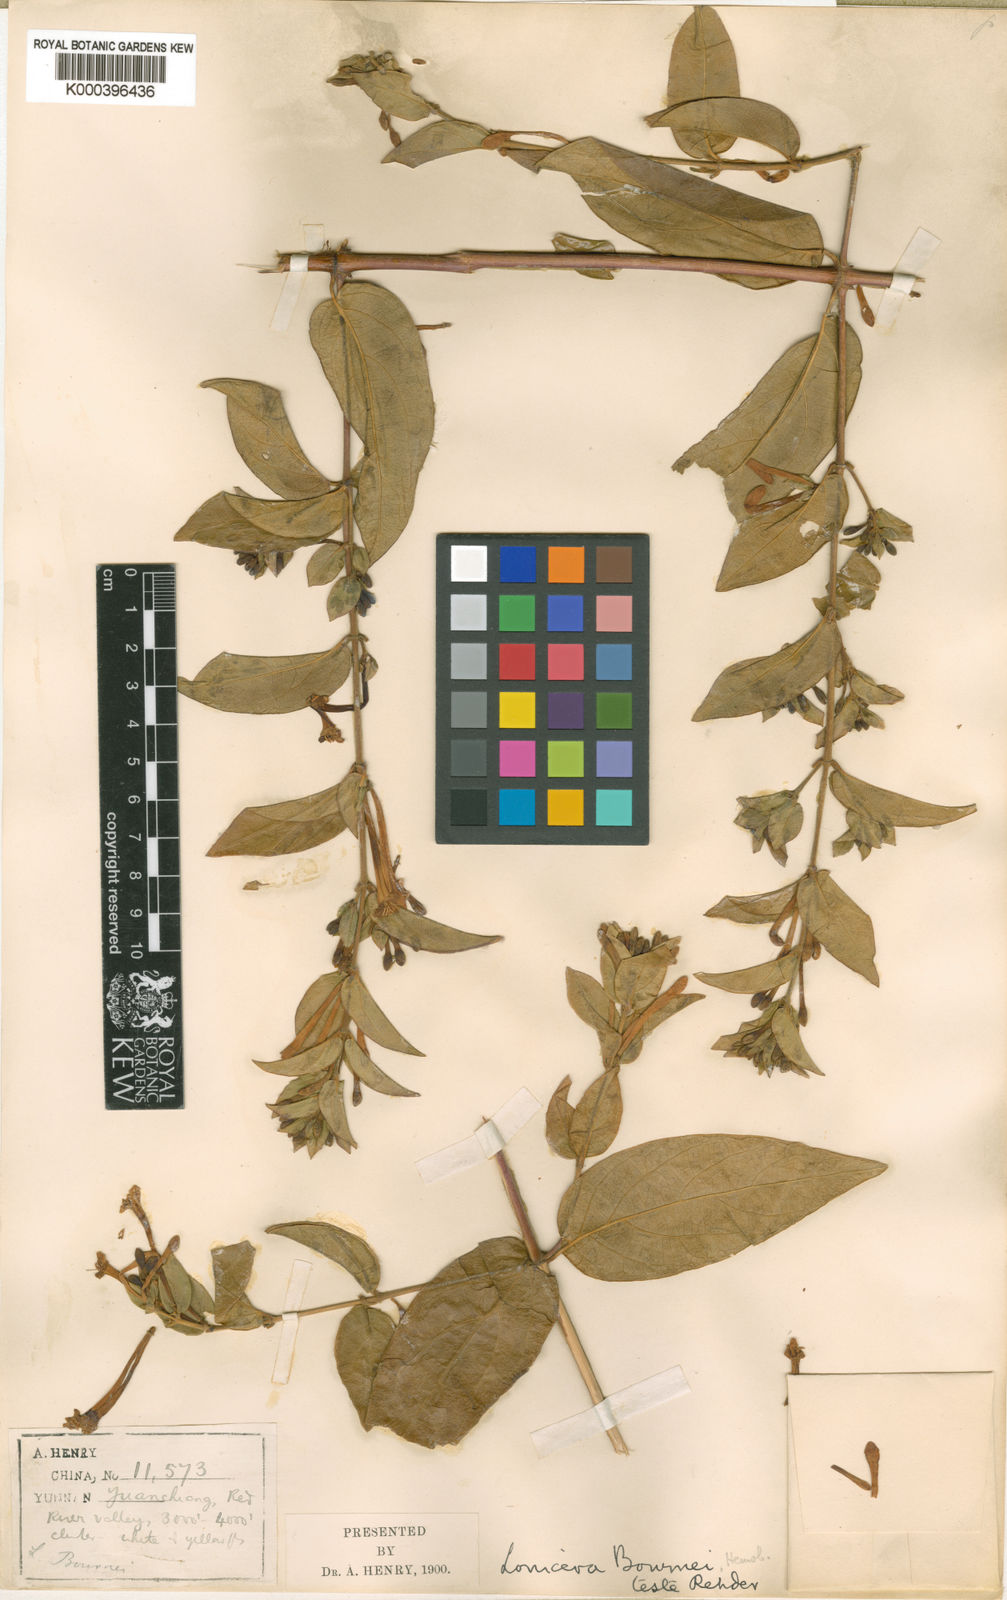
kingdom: Plantae
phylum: Tracheophyta
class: Magnoliopsida
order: Dipsacales
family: Caprifoliaceae
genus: Lonicera
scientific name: Lonicera bournei
